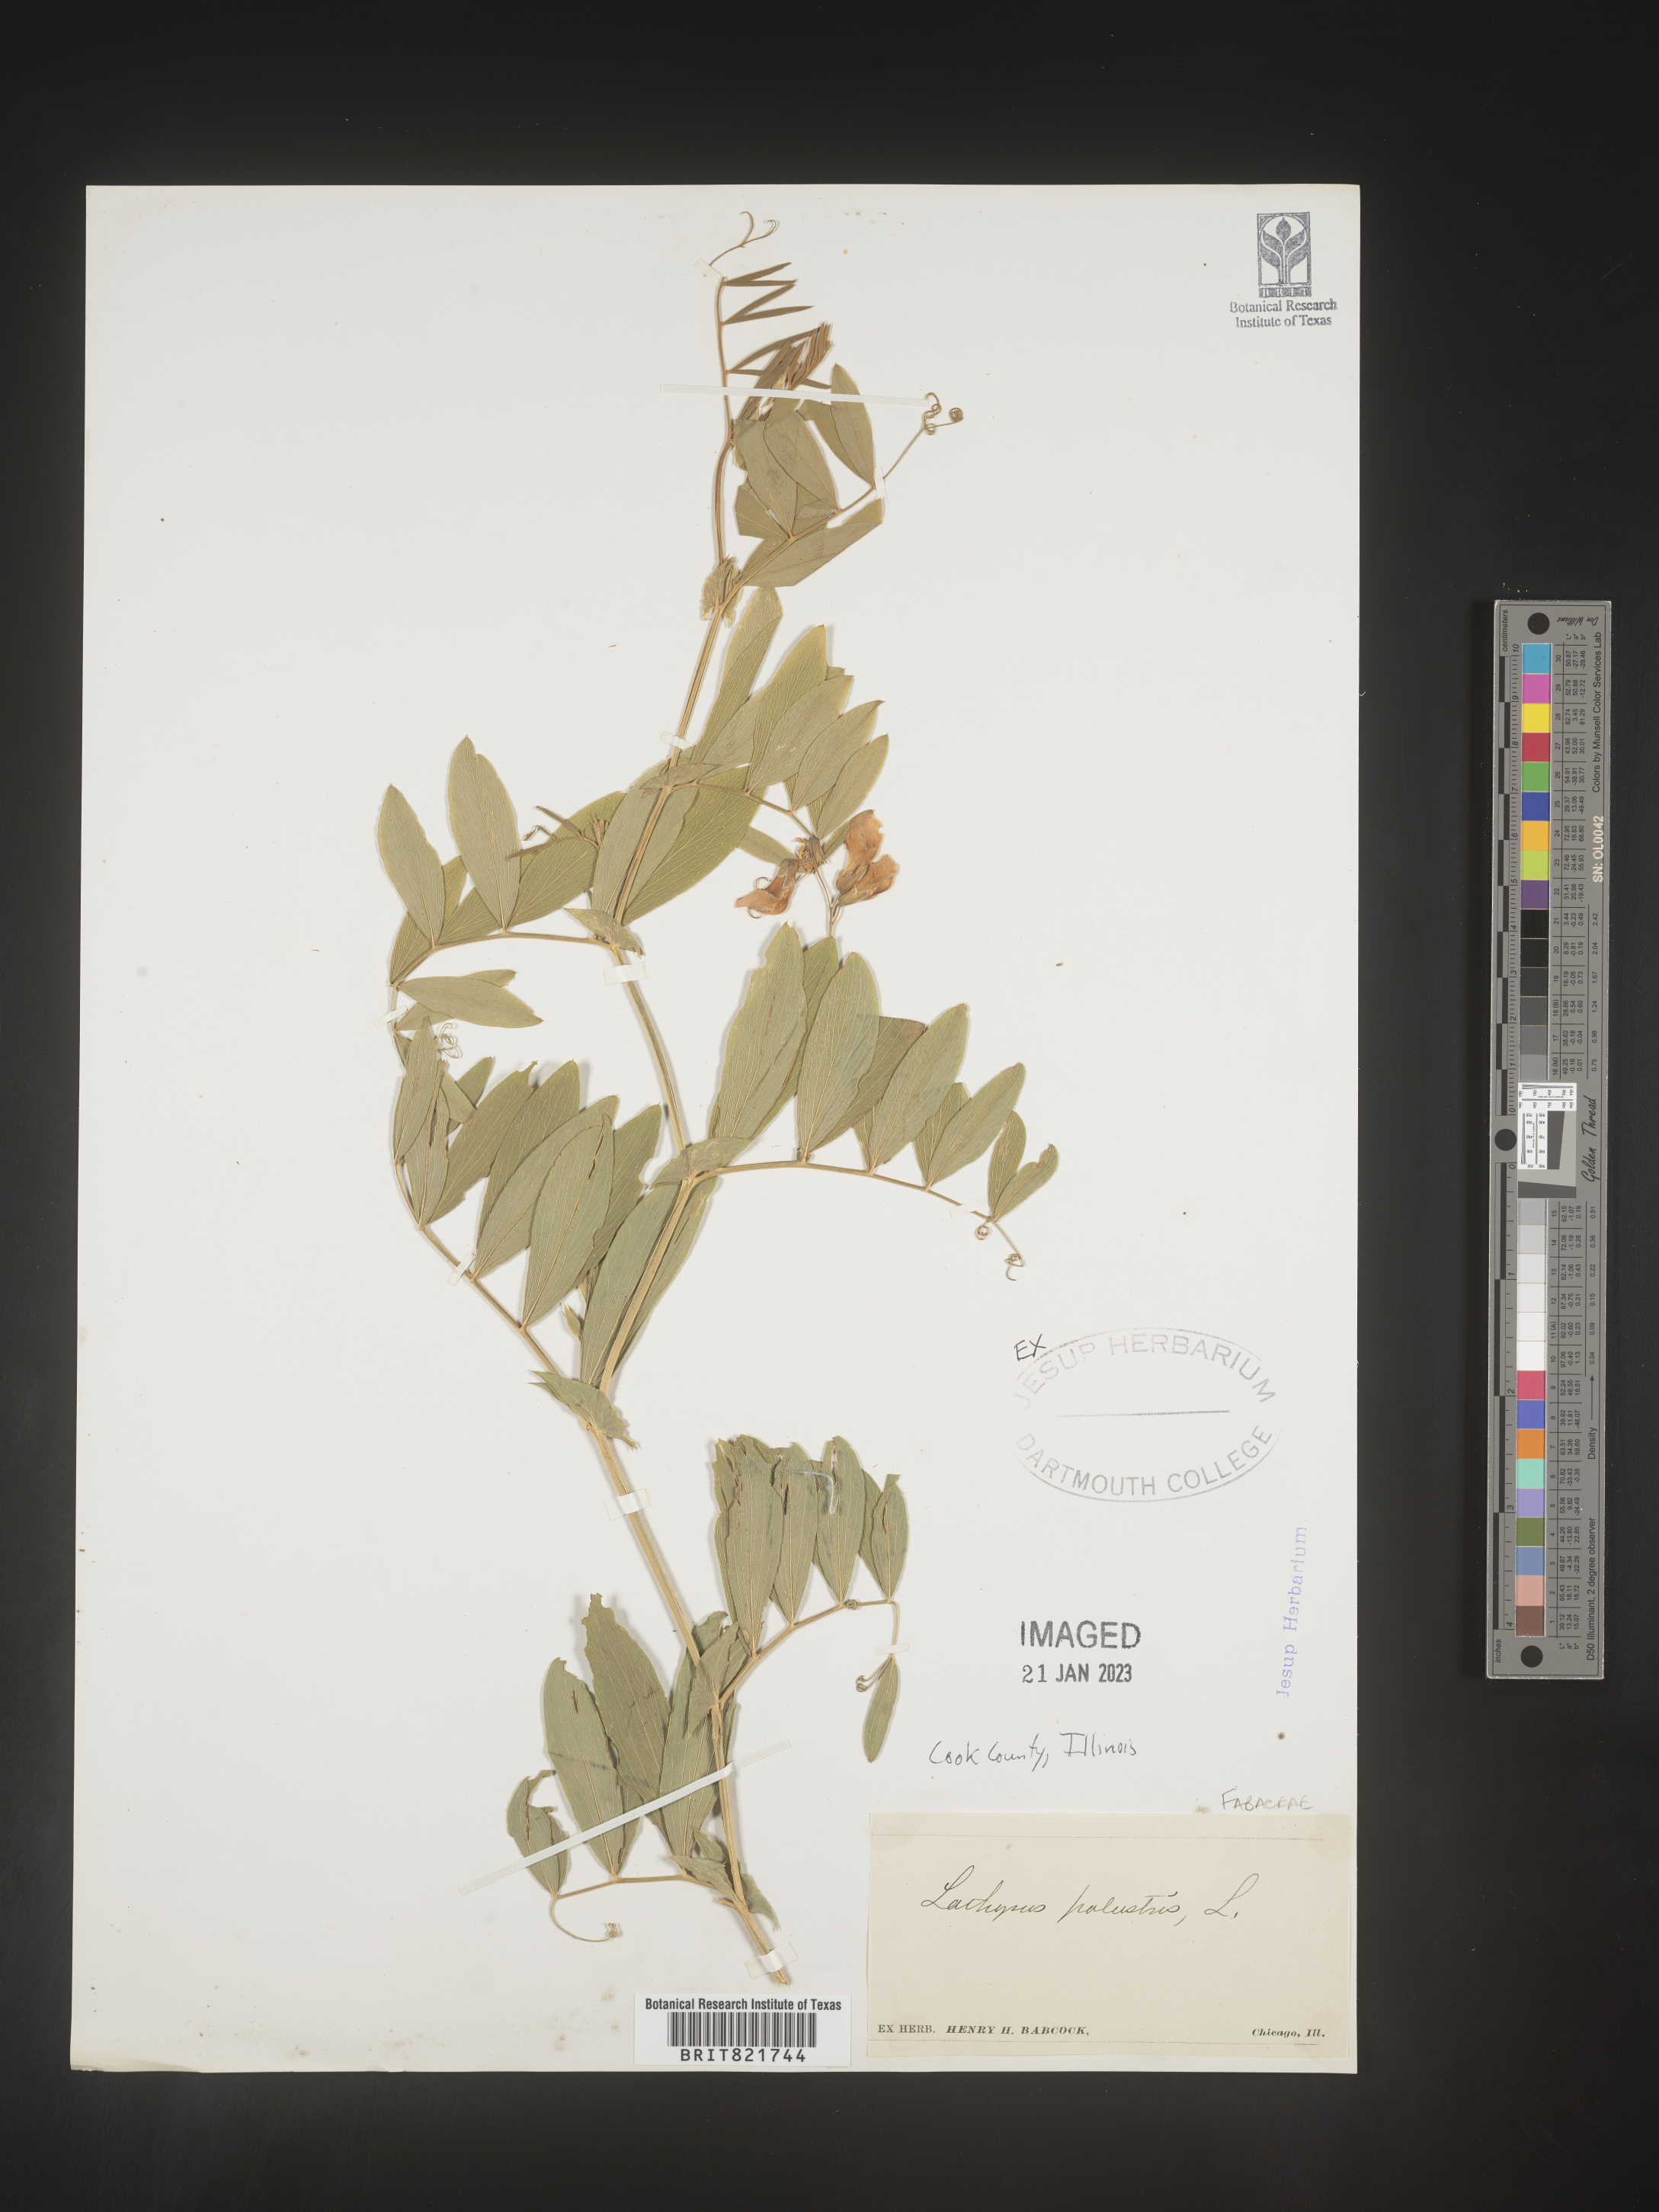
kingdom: Plantae
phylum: Tracheophyta
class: Magnoliopsida
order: Fabales
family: Fabaceae
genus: Lathyrus
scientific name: Lathyrus palustris
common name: Marsh pea
